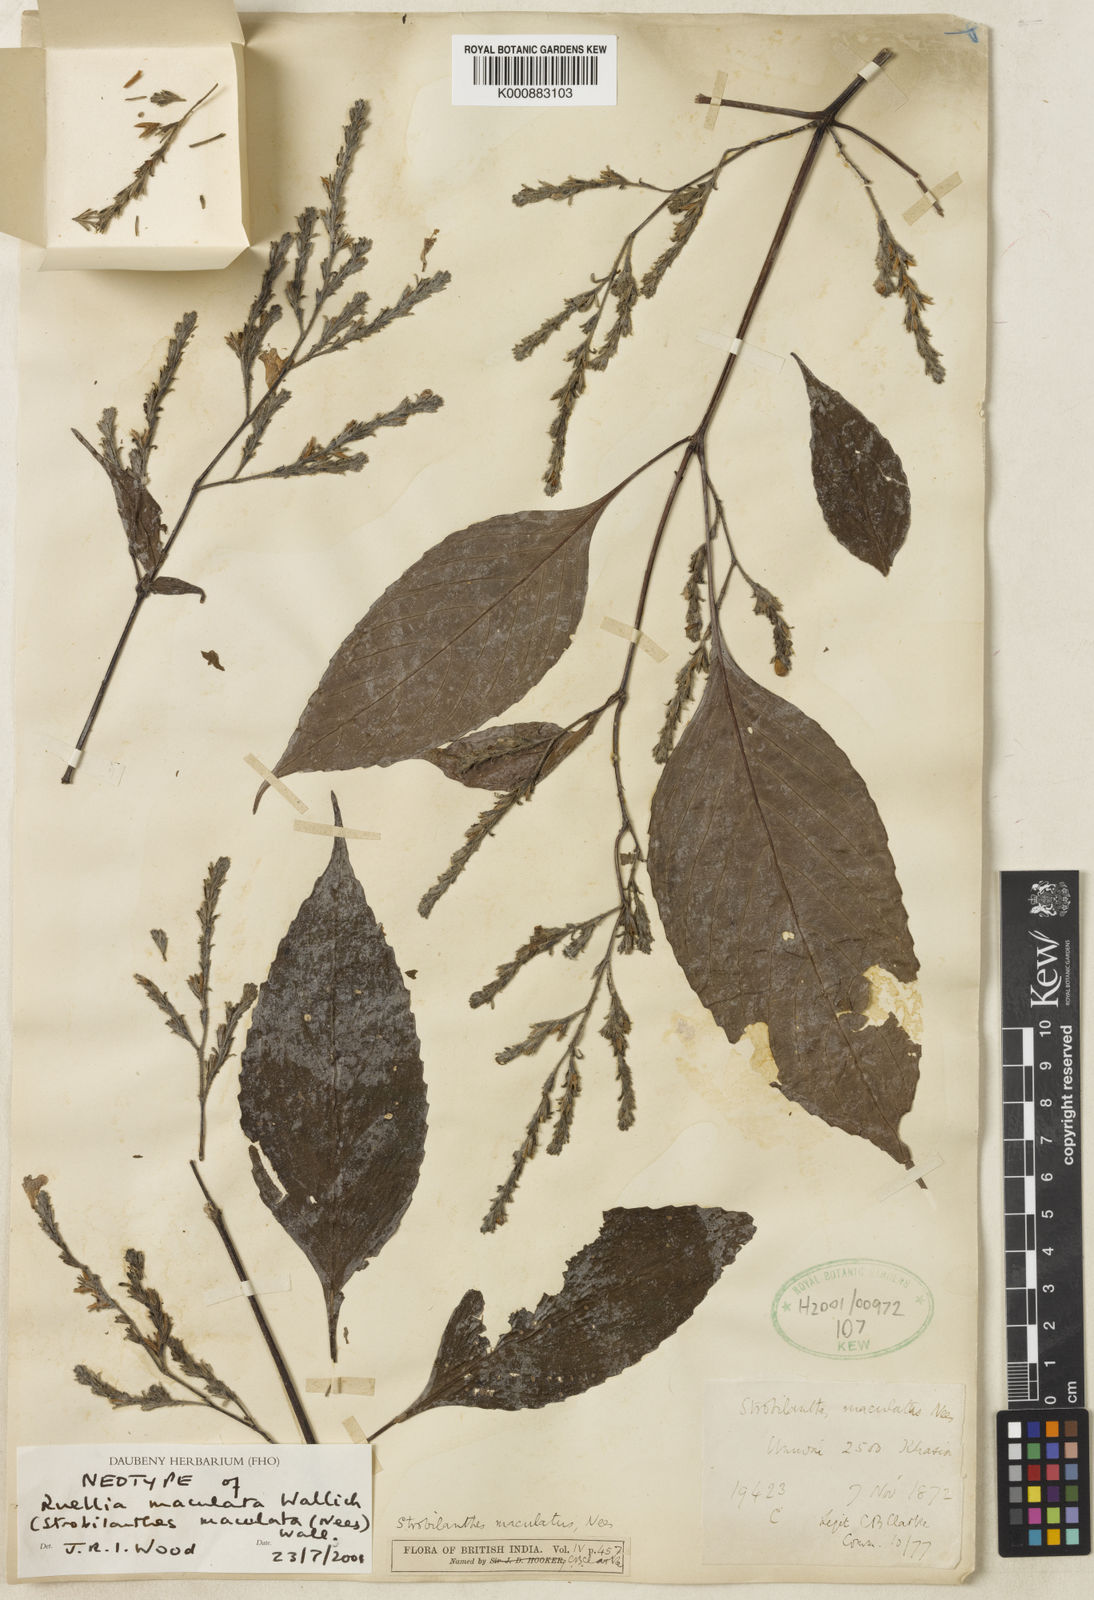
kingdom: Plantae
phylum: Tracheophyta
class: Magnoliopsida
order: Lamiales
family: Acanthaceae
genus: Strobilanthes
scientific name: Strobilanthes maculata
